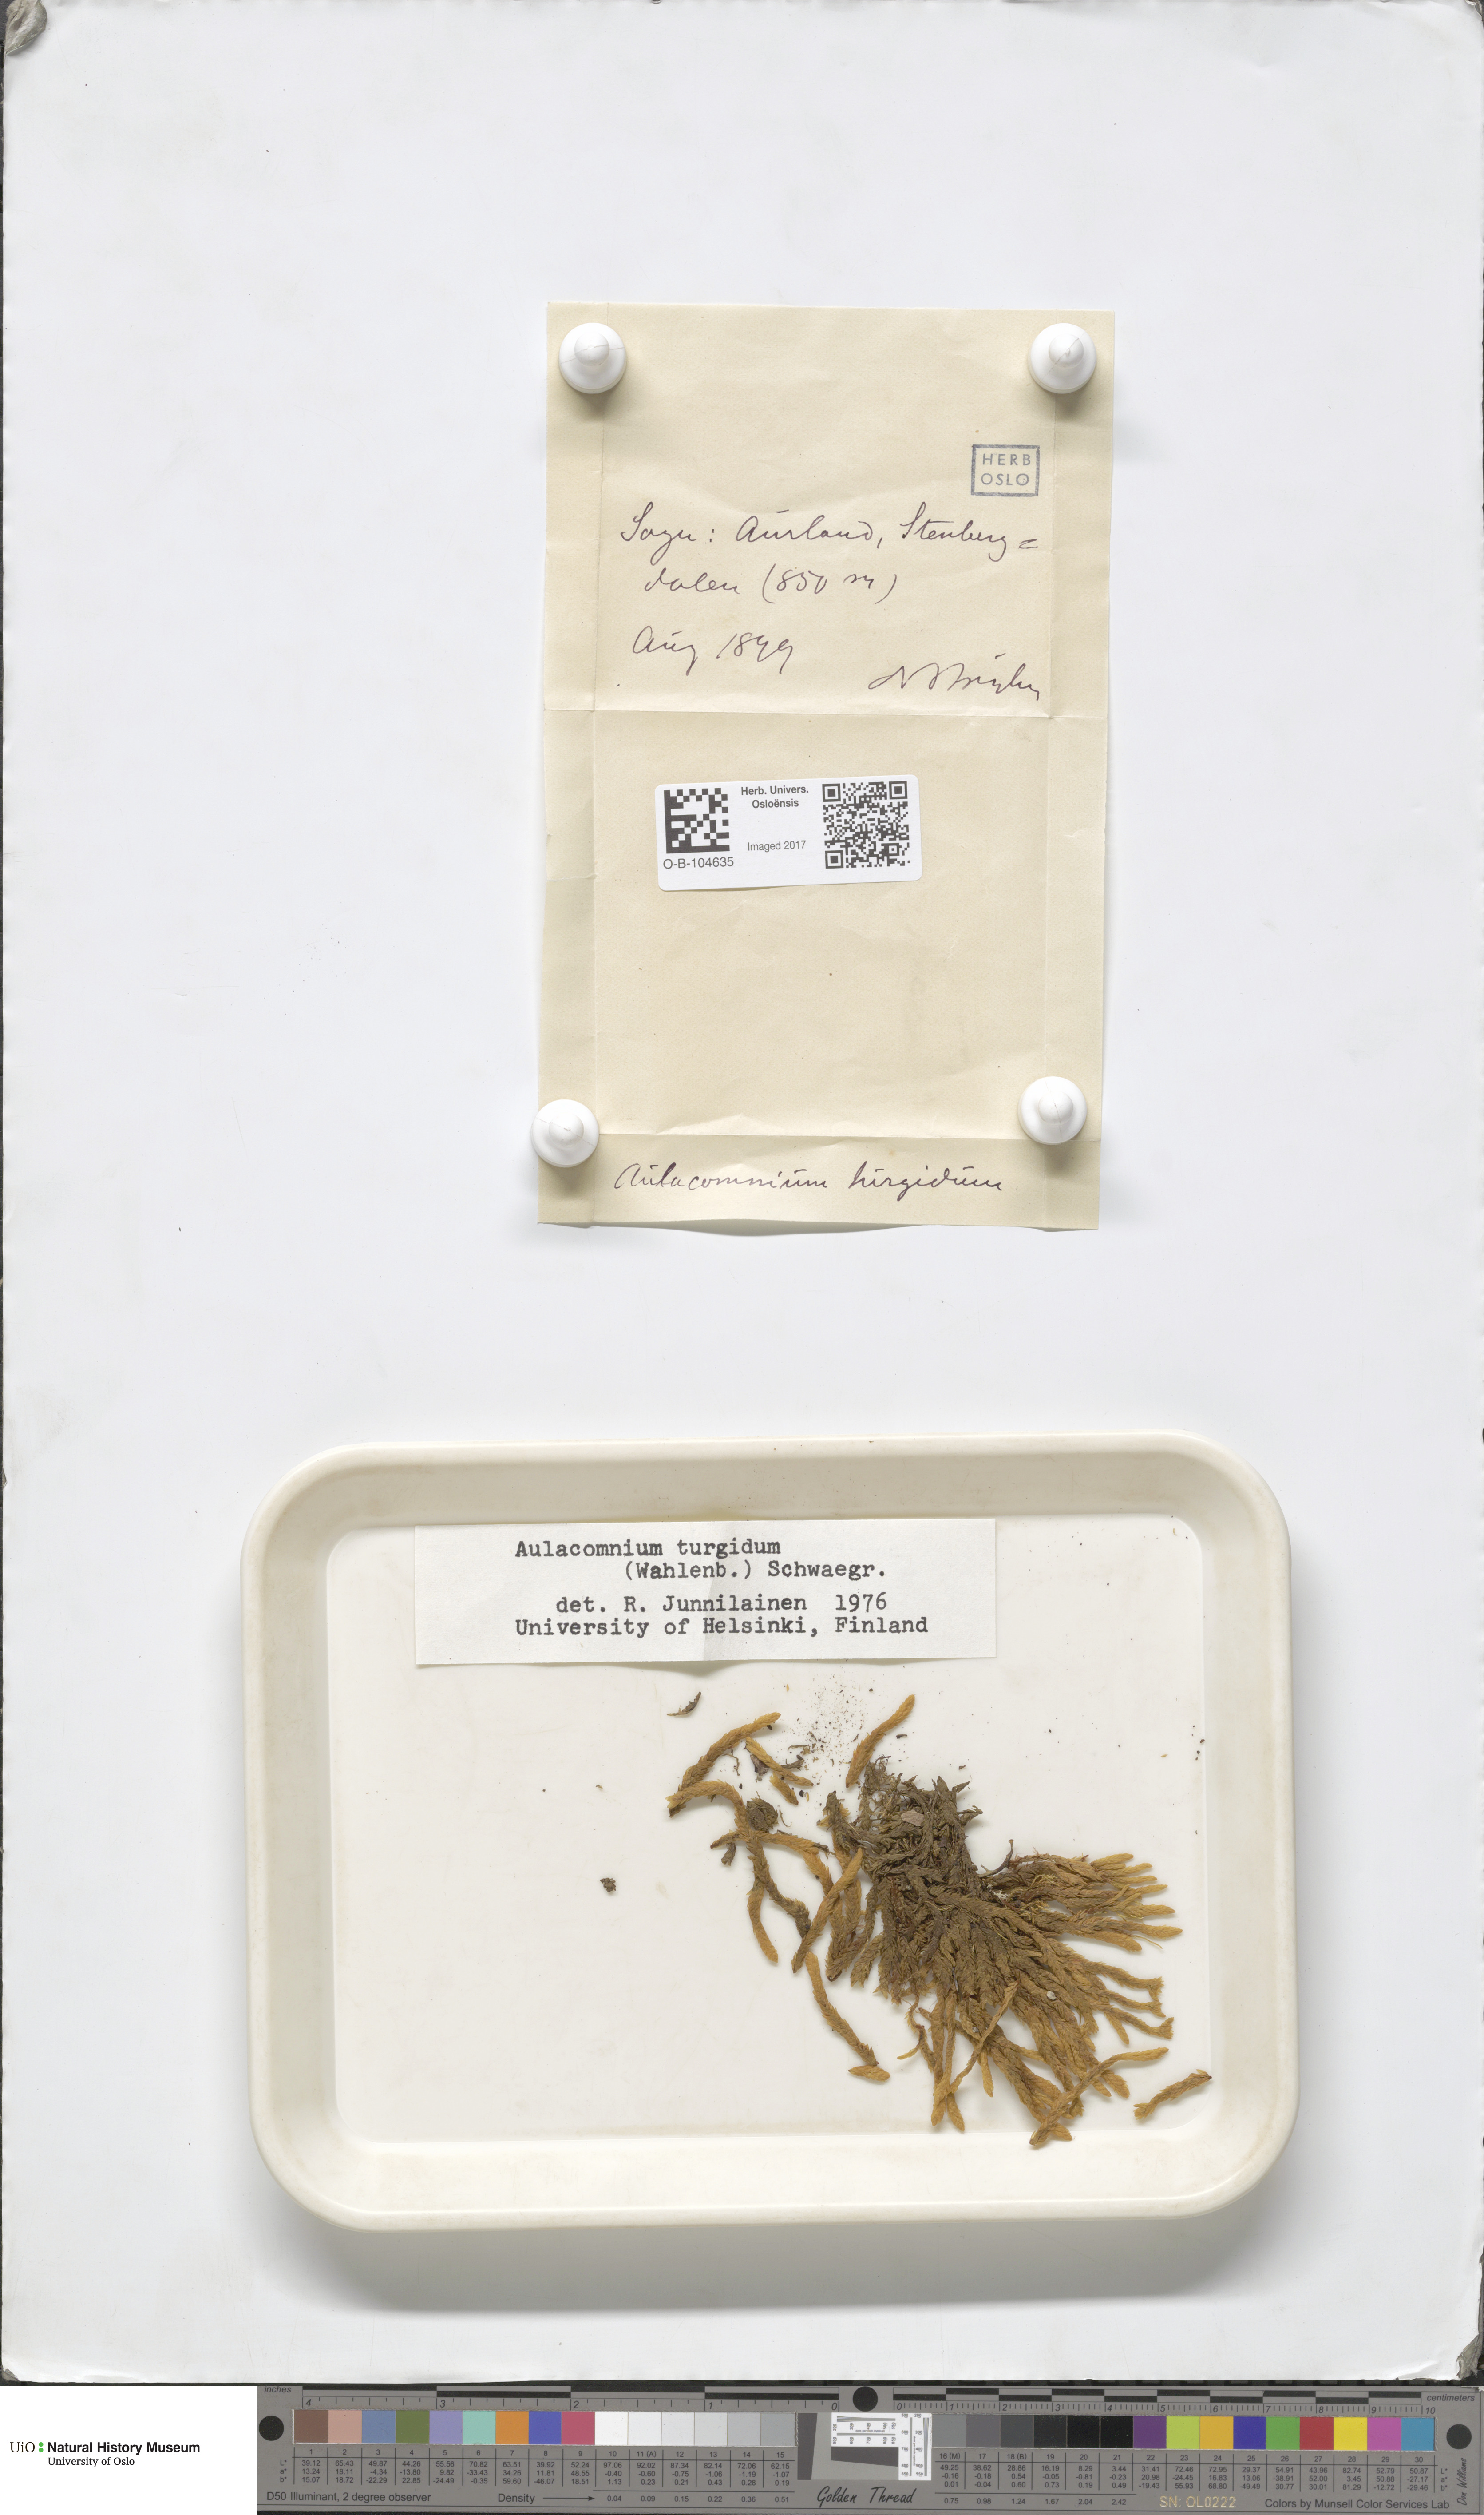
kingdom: Plantae
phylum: Bryophyta
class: Bryopsida
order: Aulacomniales
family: Aulacomniaceae
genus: Aulacomnium
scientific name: Aulacomnium turgidum
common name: Mountain groove moss
